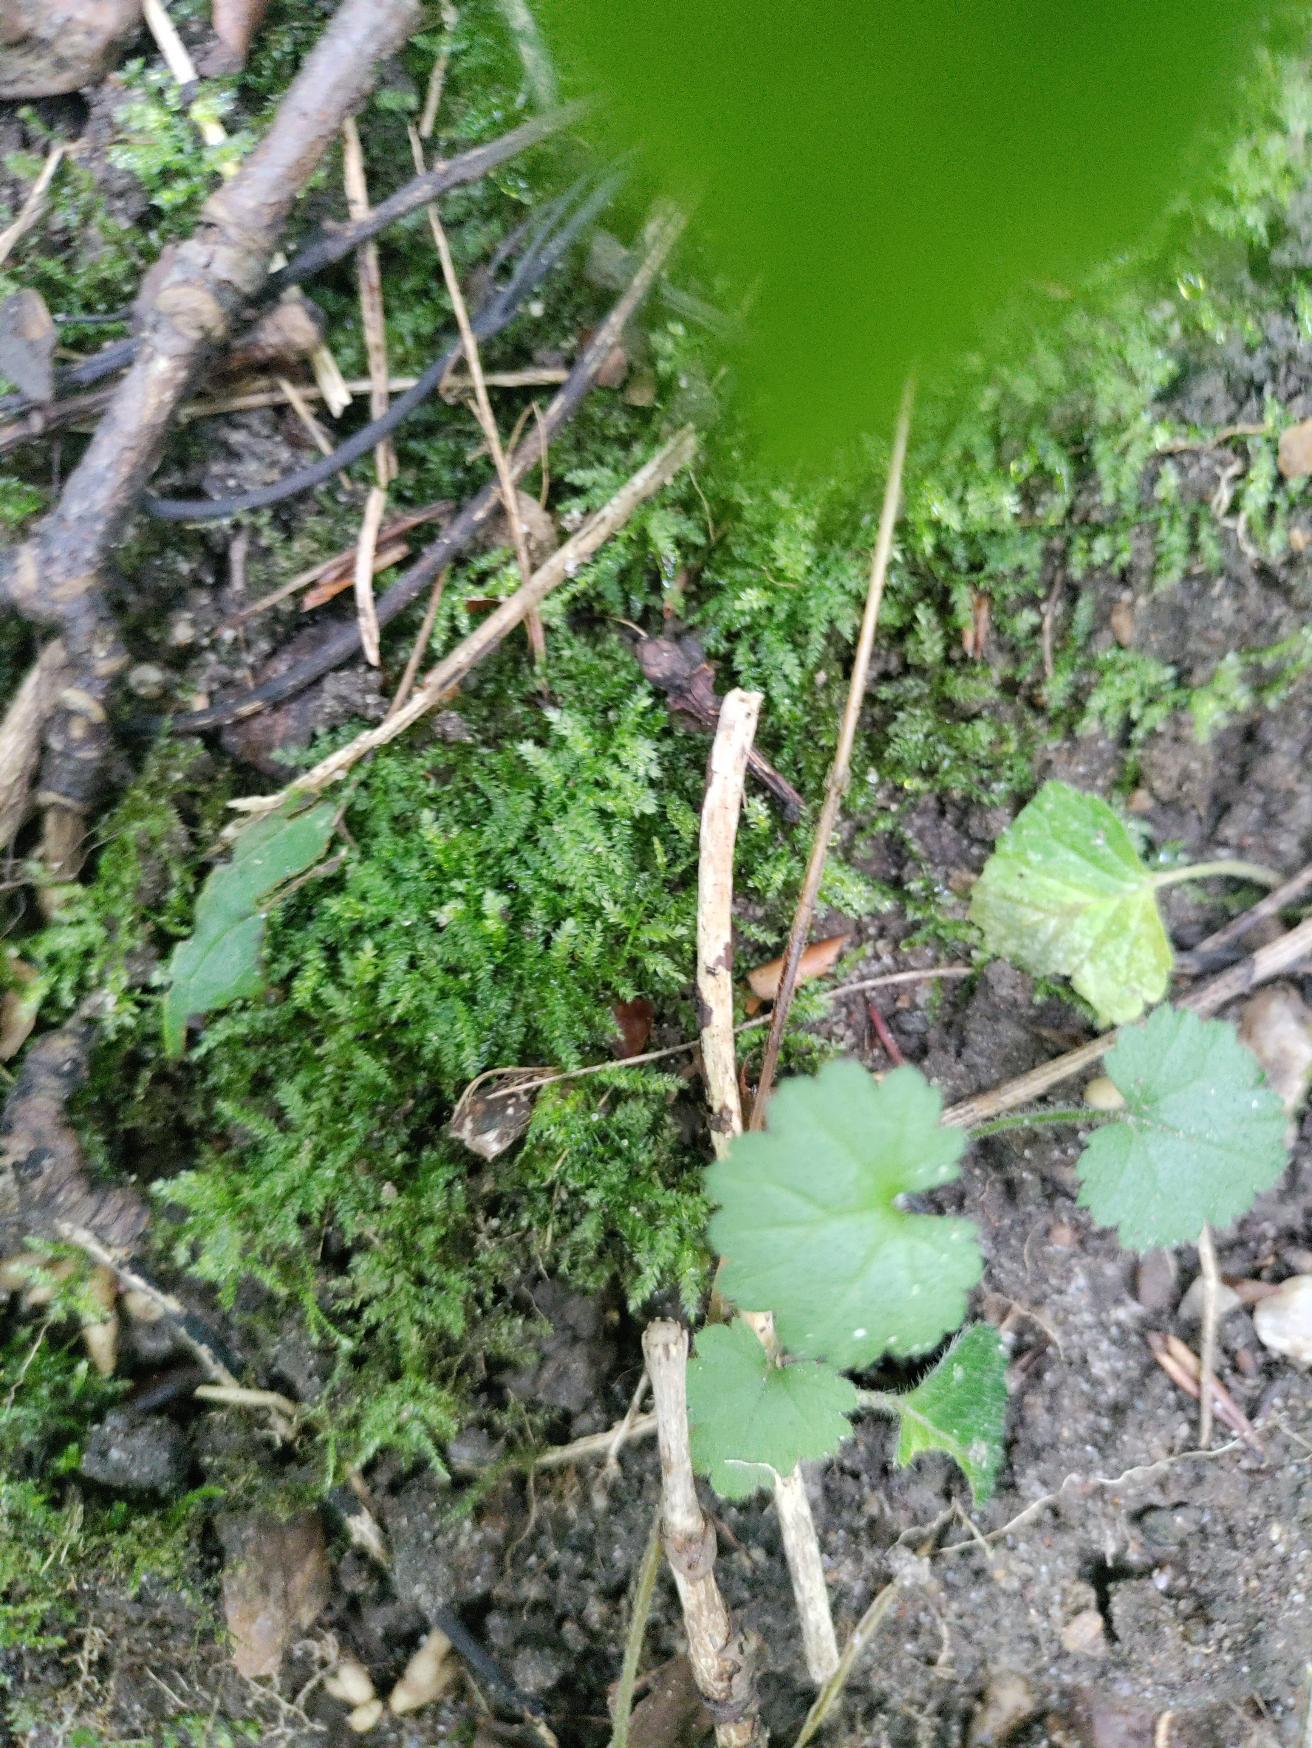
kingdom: Plantae
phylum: Bryophyta
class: Bryopsida
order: Hypnales
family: Brachytheciaceae
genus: Oxyrrhynchium
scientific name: Oxyrrhynchium hians
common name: Ler-vortetand
